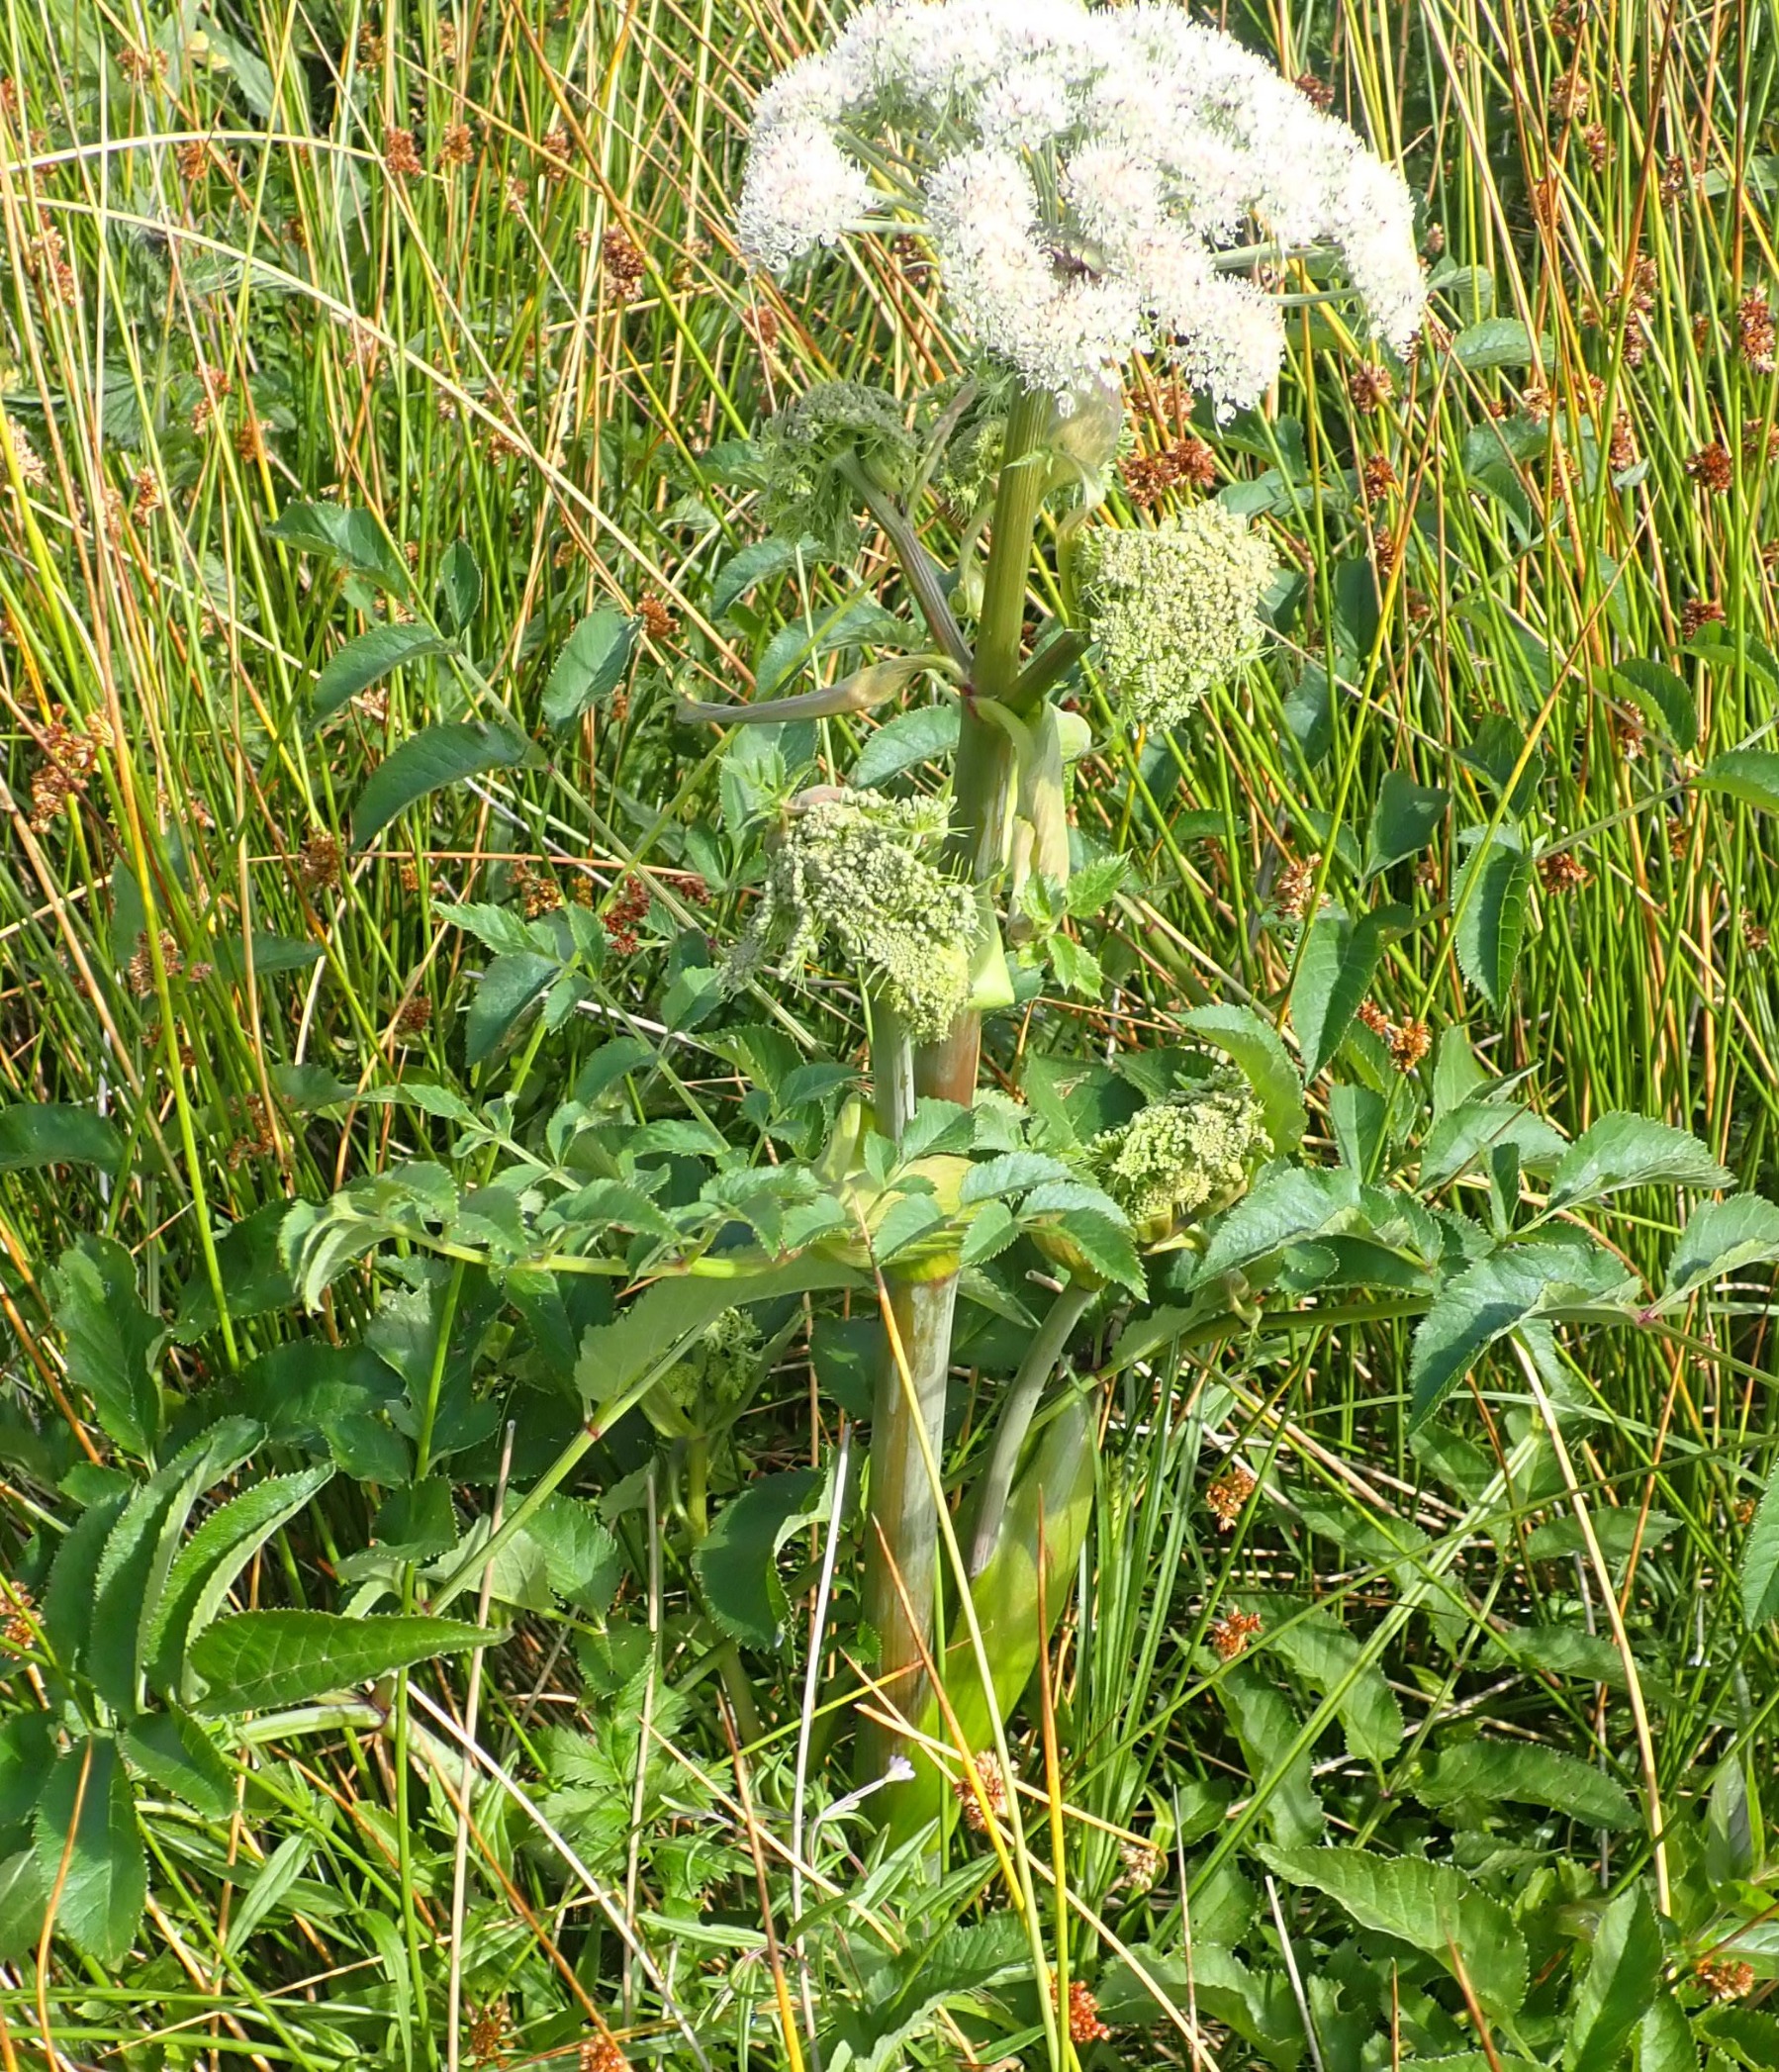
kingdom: Plantae
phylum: Tracheophyta
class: Magnoliopsida
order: Apiales
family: Apiaceae
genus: Angelica
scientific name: Angelica sylvestris
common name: Angelik
